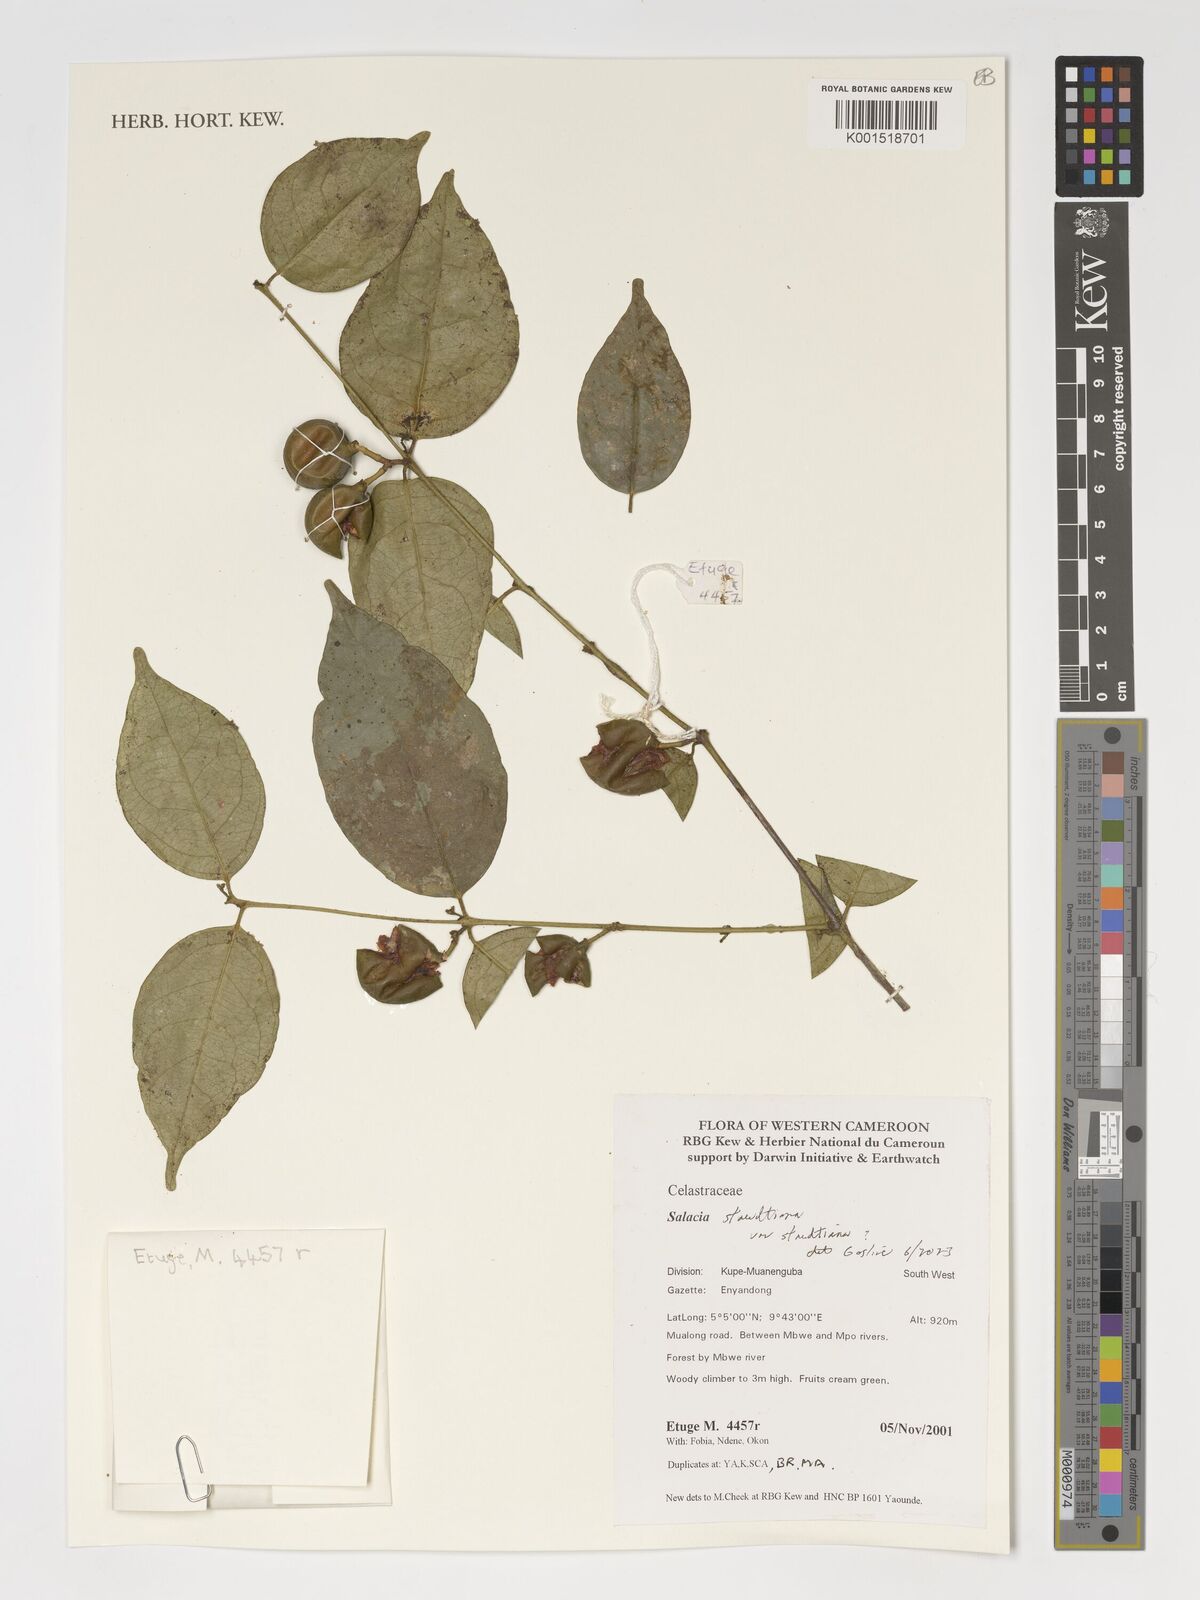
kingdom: Plantae
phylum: Tracheophyta
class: Magnoliopsida
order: Celastrales
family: Celastraceae
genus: Salacia
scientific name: Salacia staudtiana
